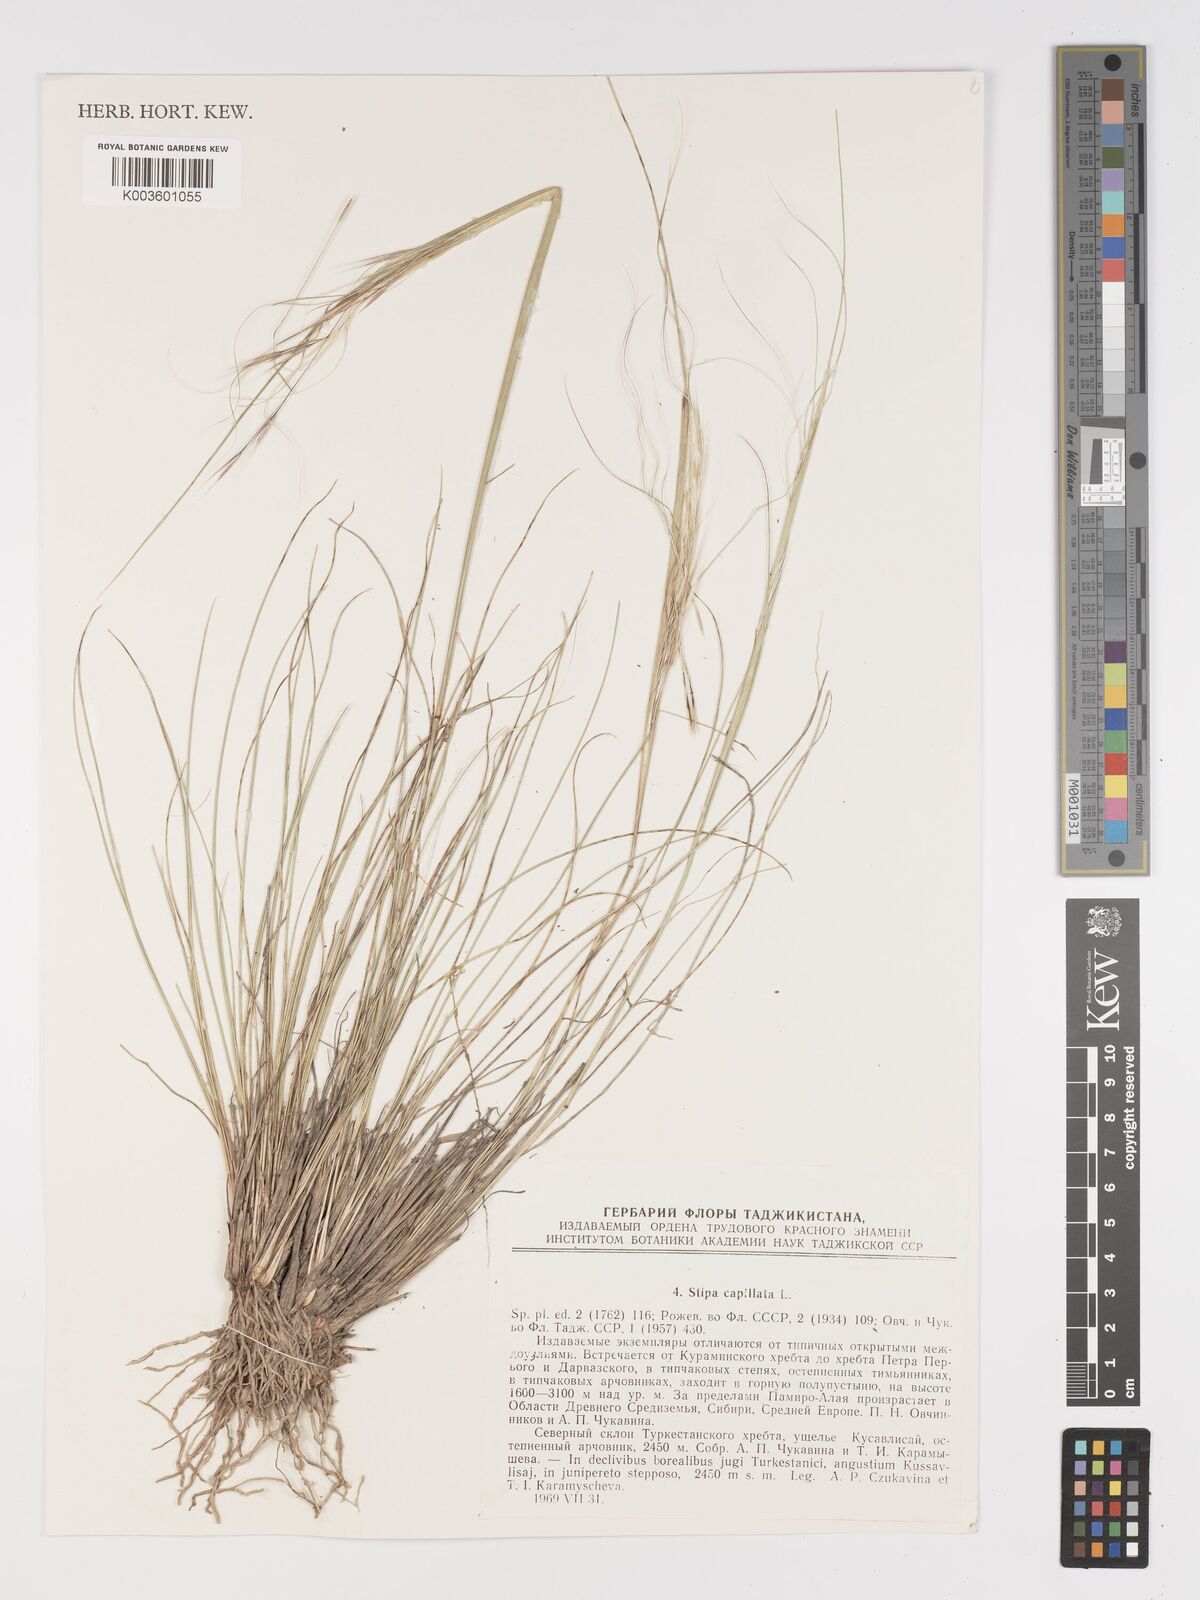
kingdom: Plantae
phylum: Tracheophyta
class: Liliopsida
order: Poales
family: Poaceae
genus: Stipa
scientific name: Stipa capillata
